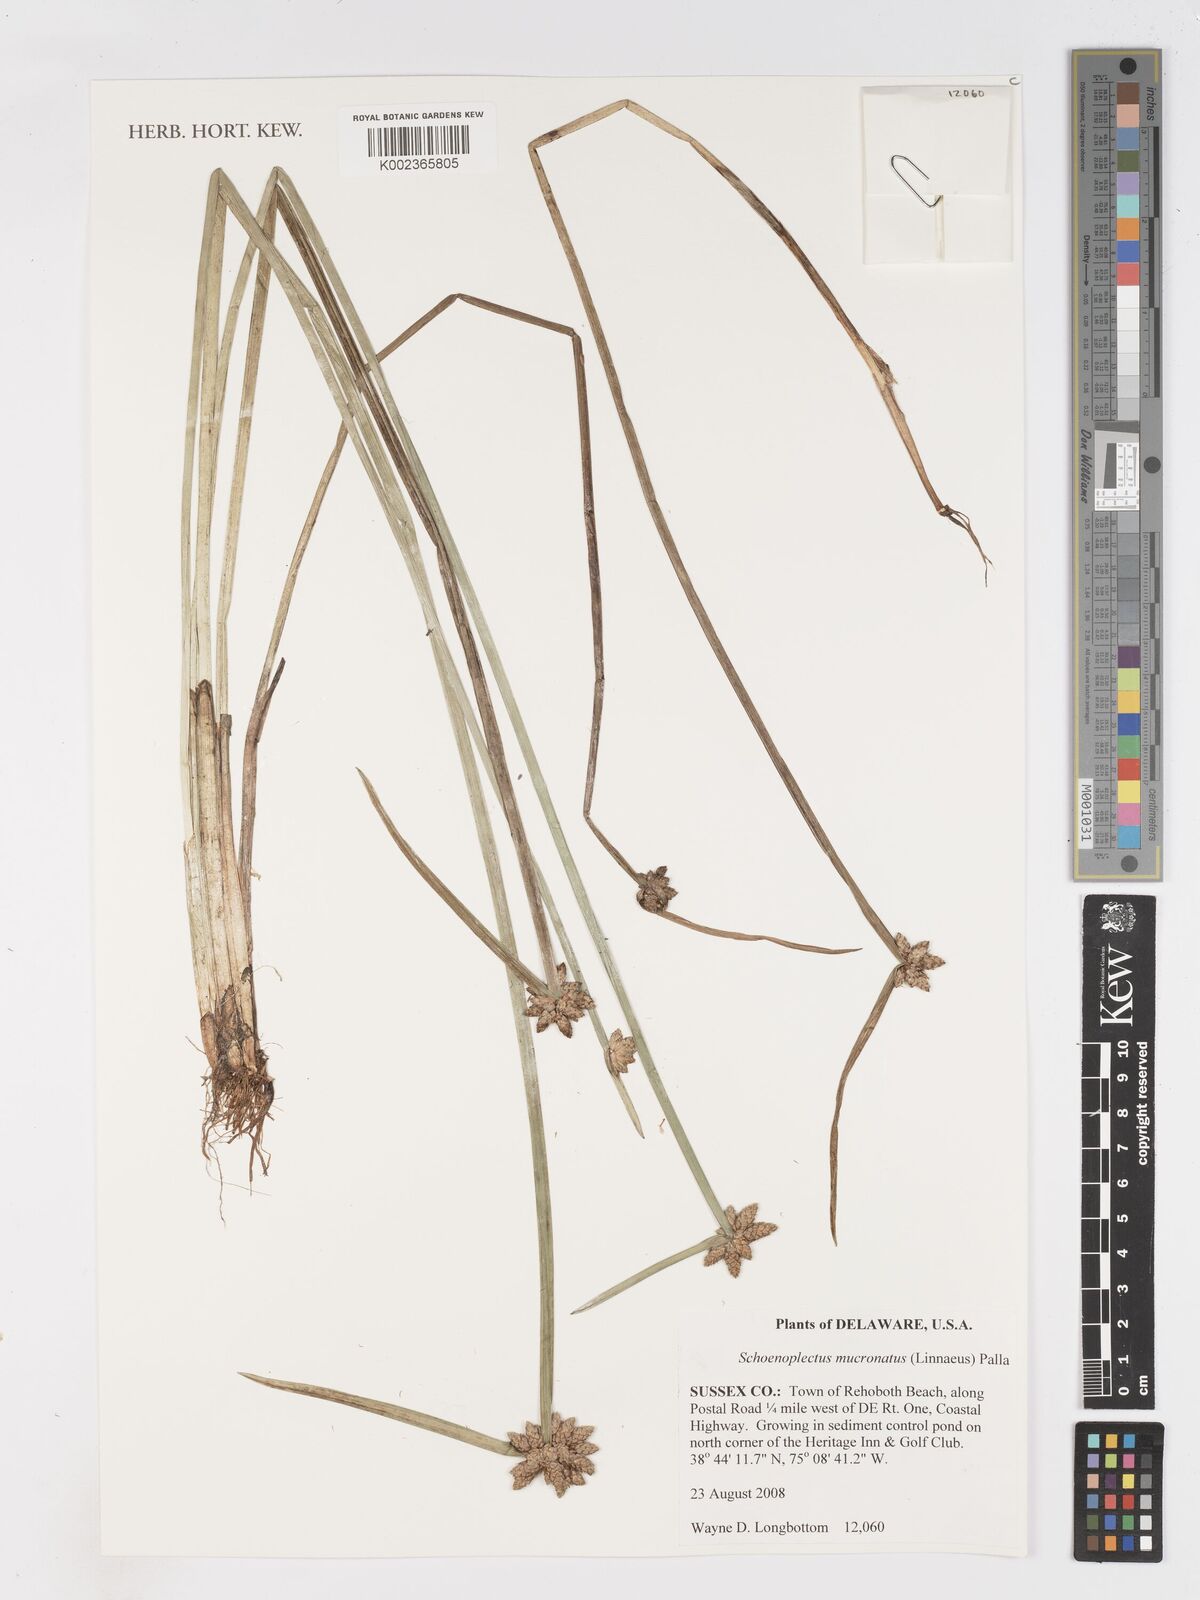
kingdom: Plantae
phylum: Tracheophyta
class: Liliopsida
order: Poales
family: Cyperaceae
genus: Schoenoplectiella
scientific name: Schoenoplectiella mucronata
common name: Bog bulrush
